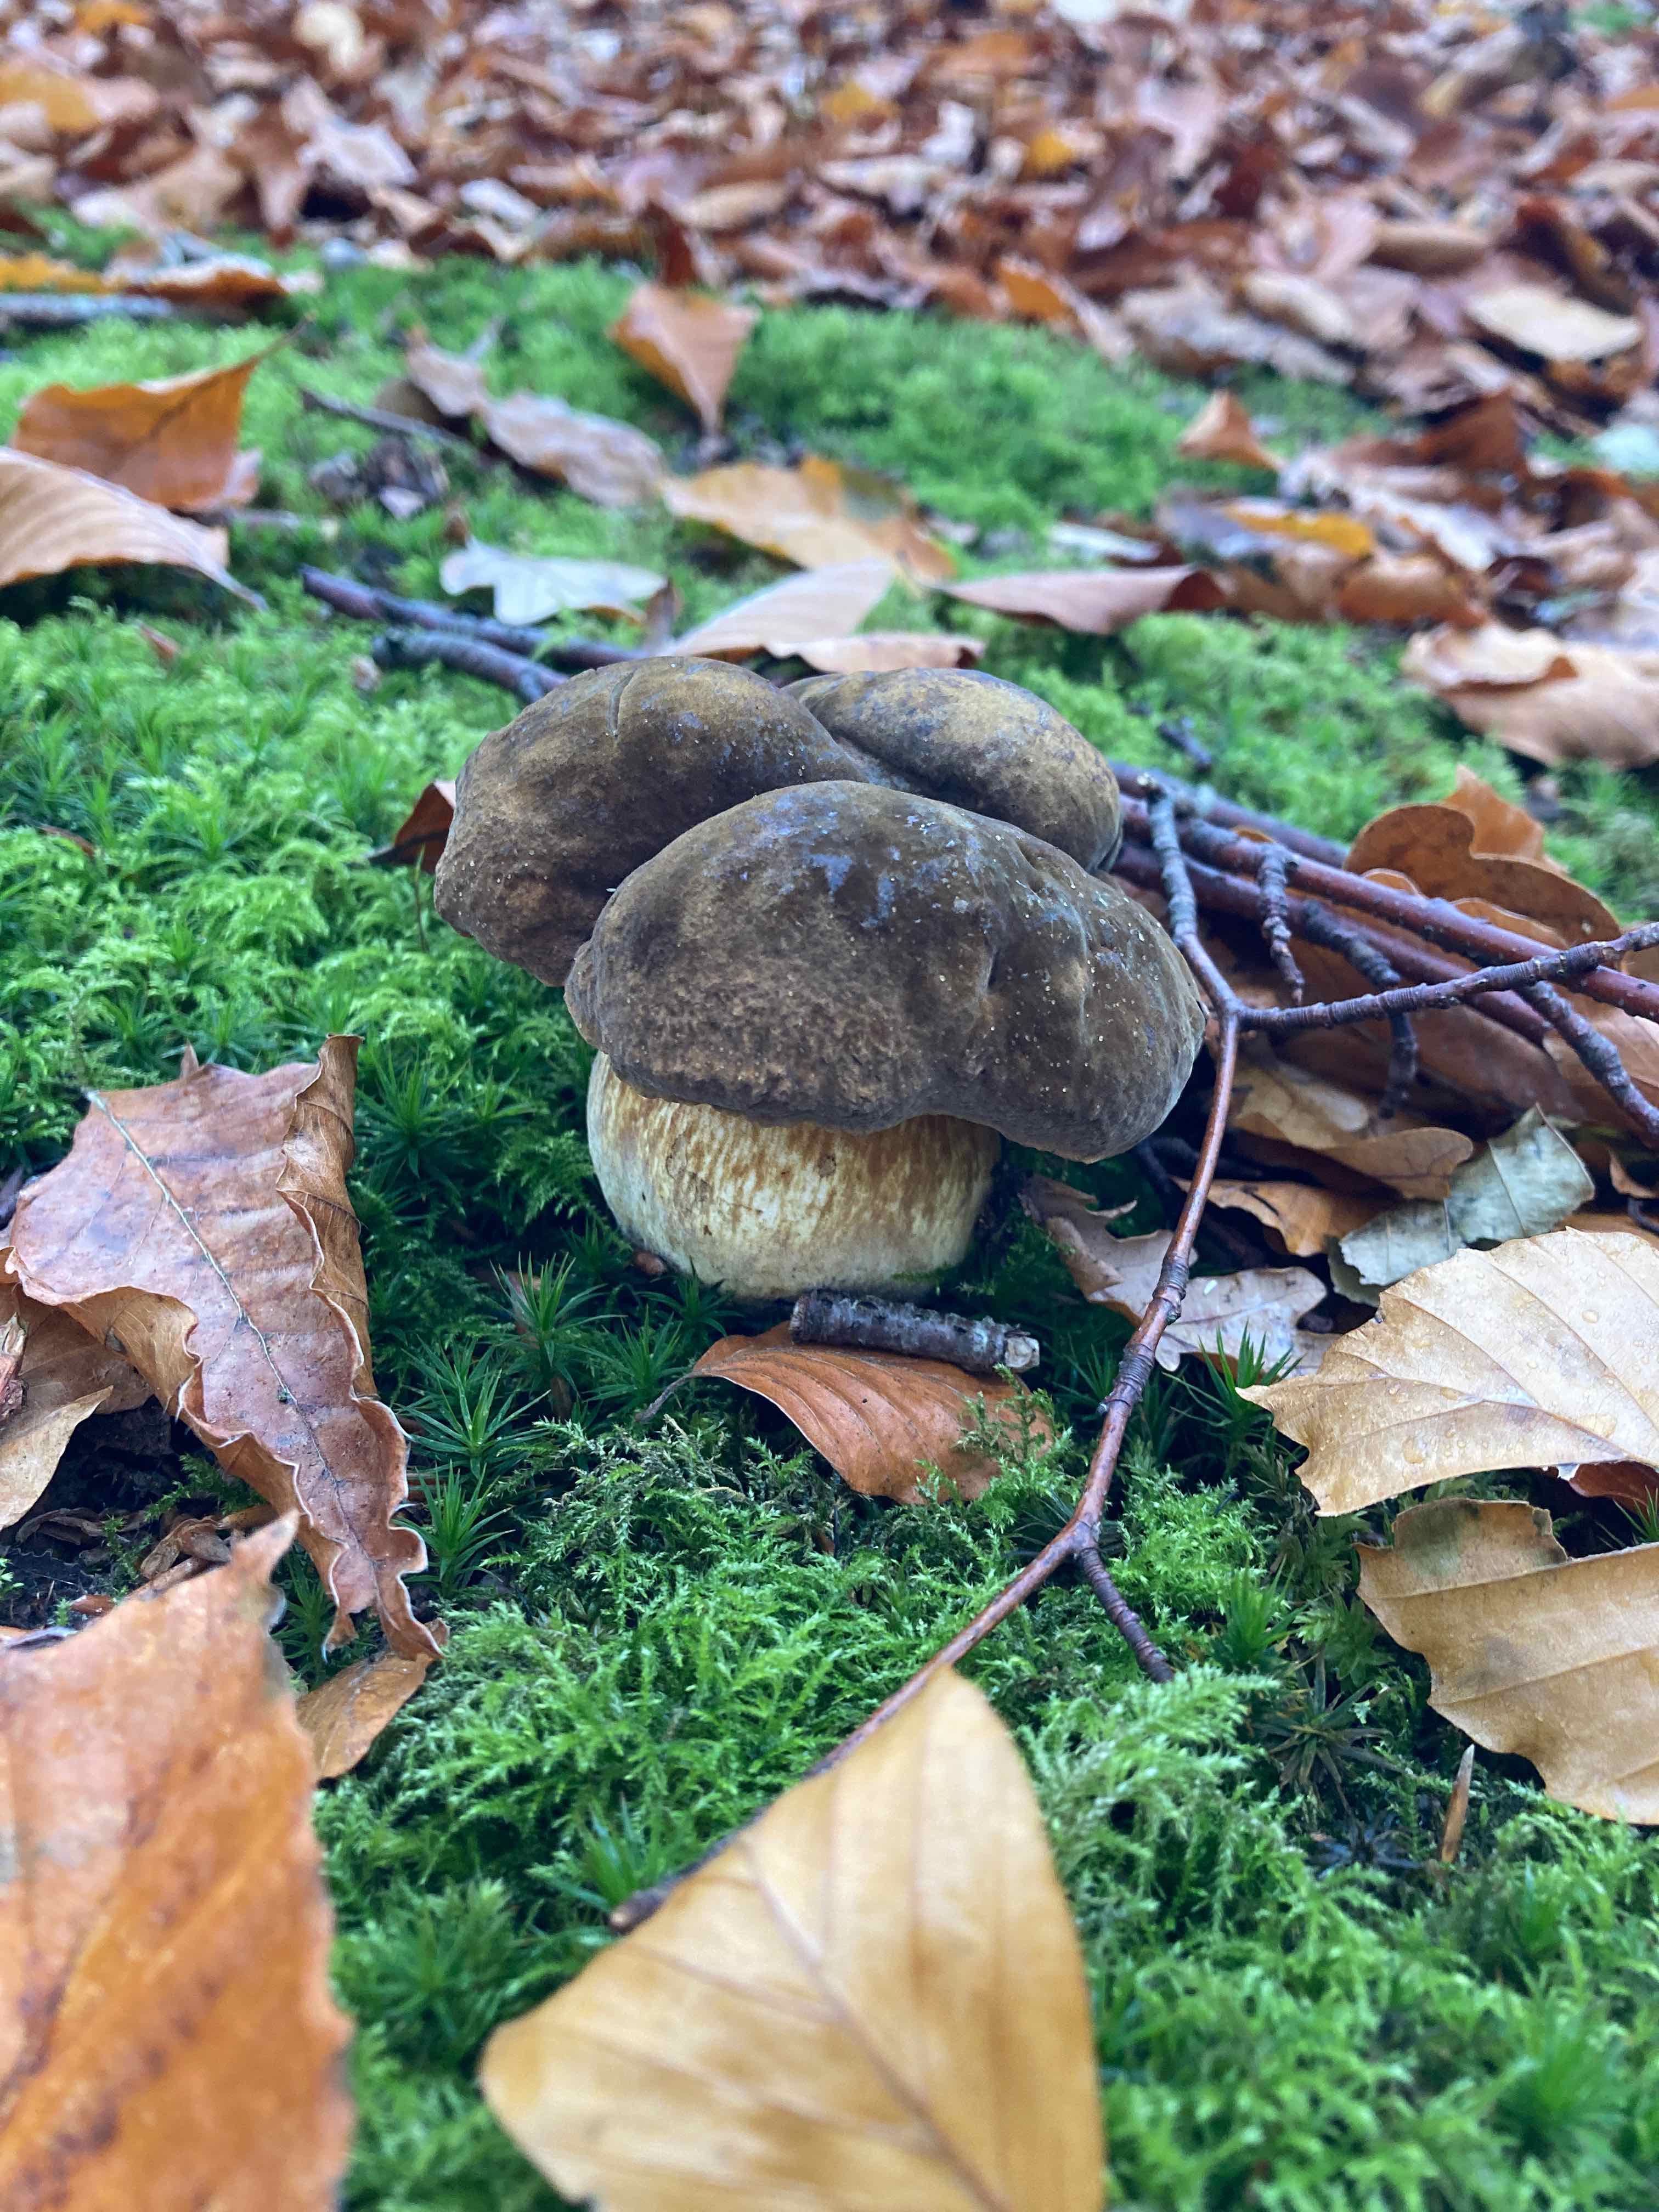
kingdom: Fungi
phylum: Basidiomycota
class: Agaricomycetes
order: Boletales
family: Boletaceae
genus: Neoboletus
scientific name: Neoboletus erythropus
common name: punktstokket indigorørhat
